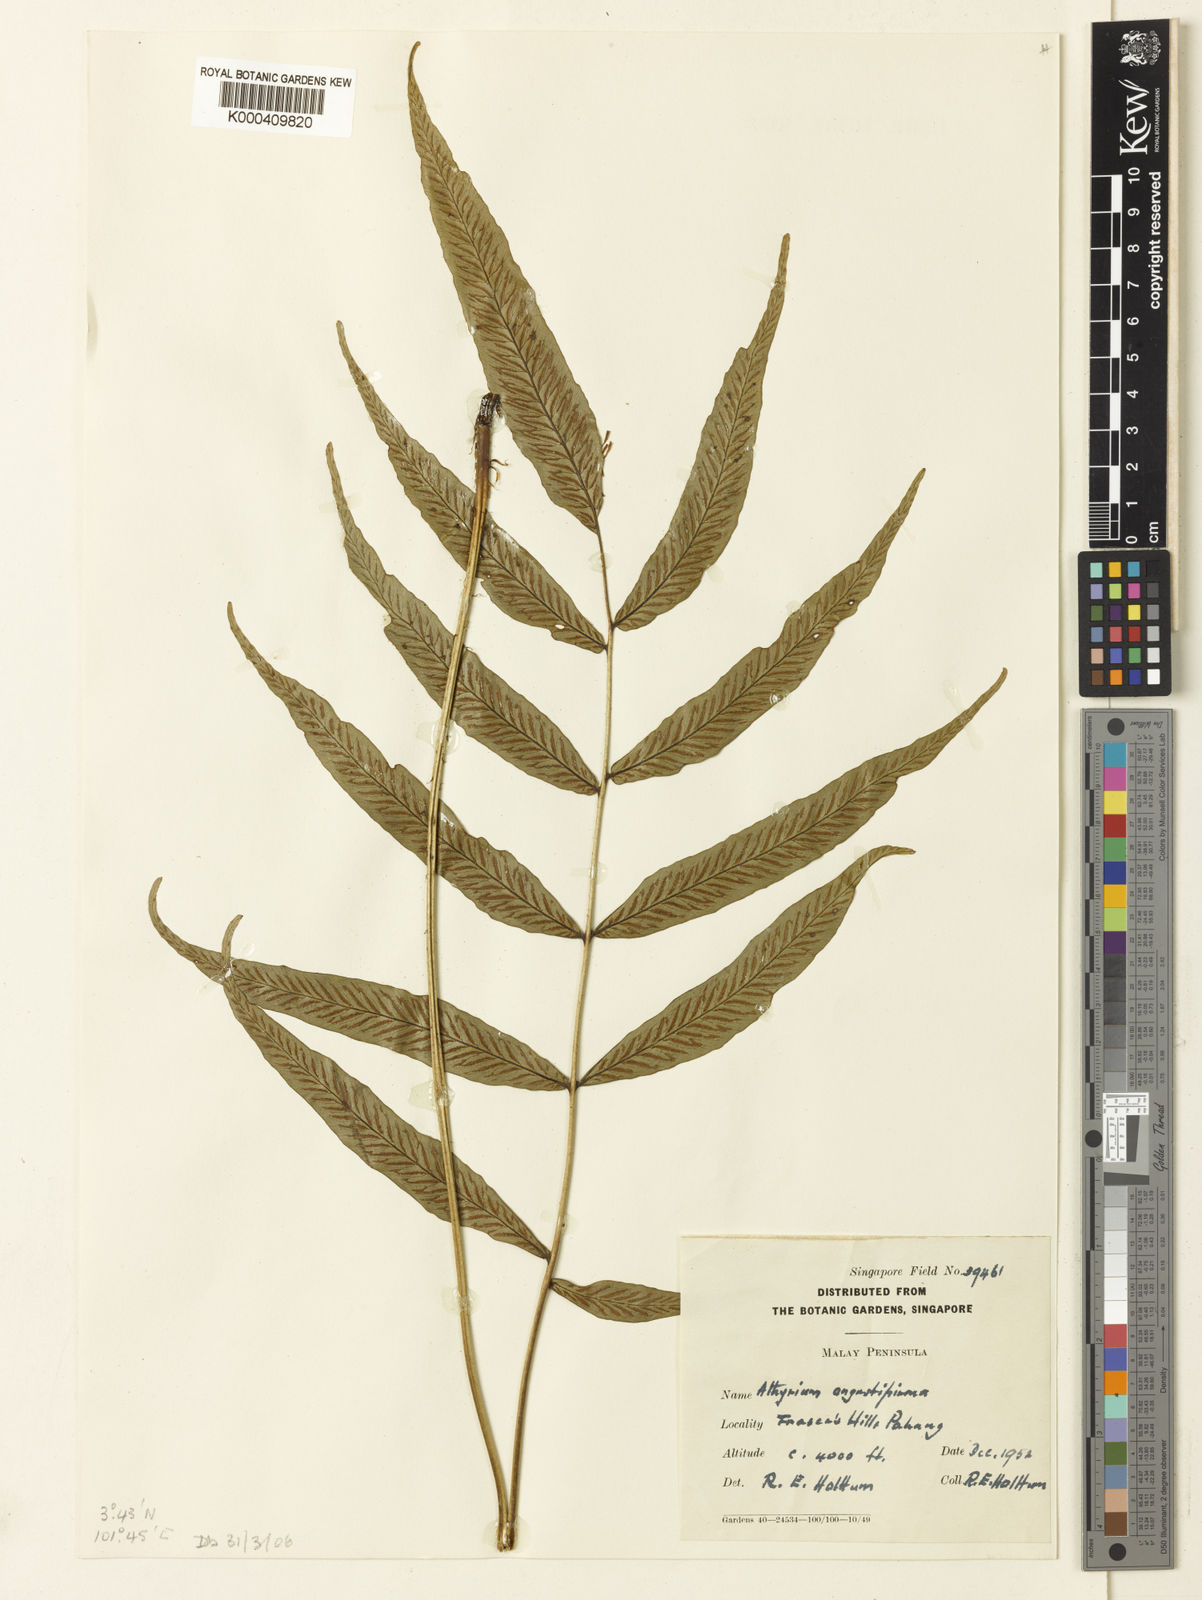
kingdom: Plantae
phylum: Tracheophyta
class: Polypodiopsida
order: Polypodiales
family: Athyriaceae
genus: Diplazium
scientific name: Diplazium angustipinna
